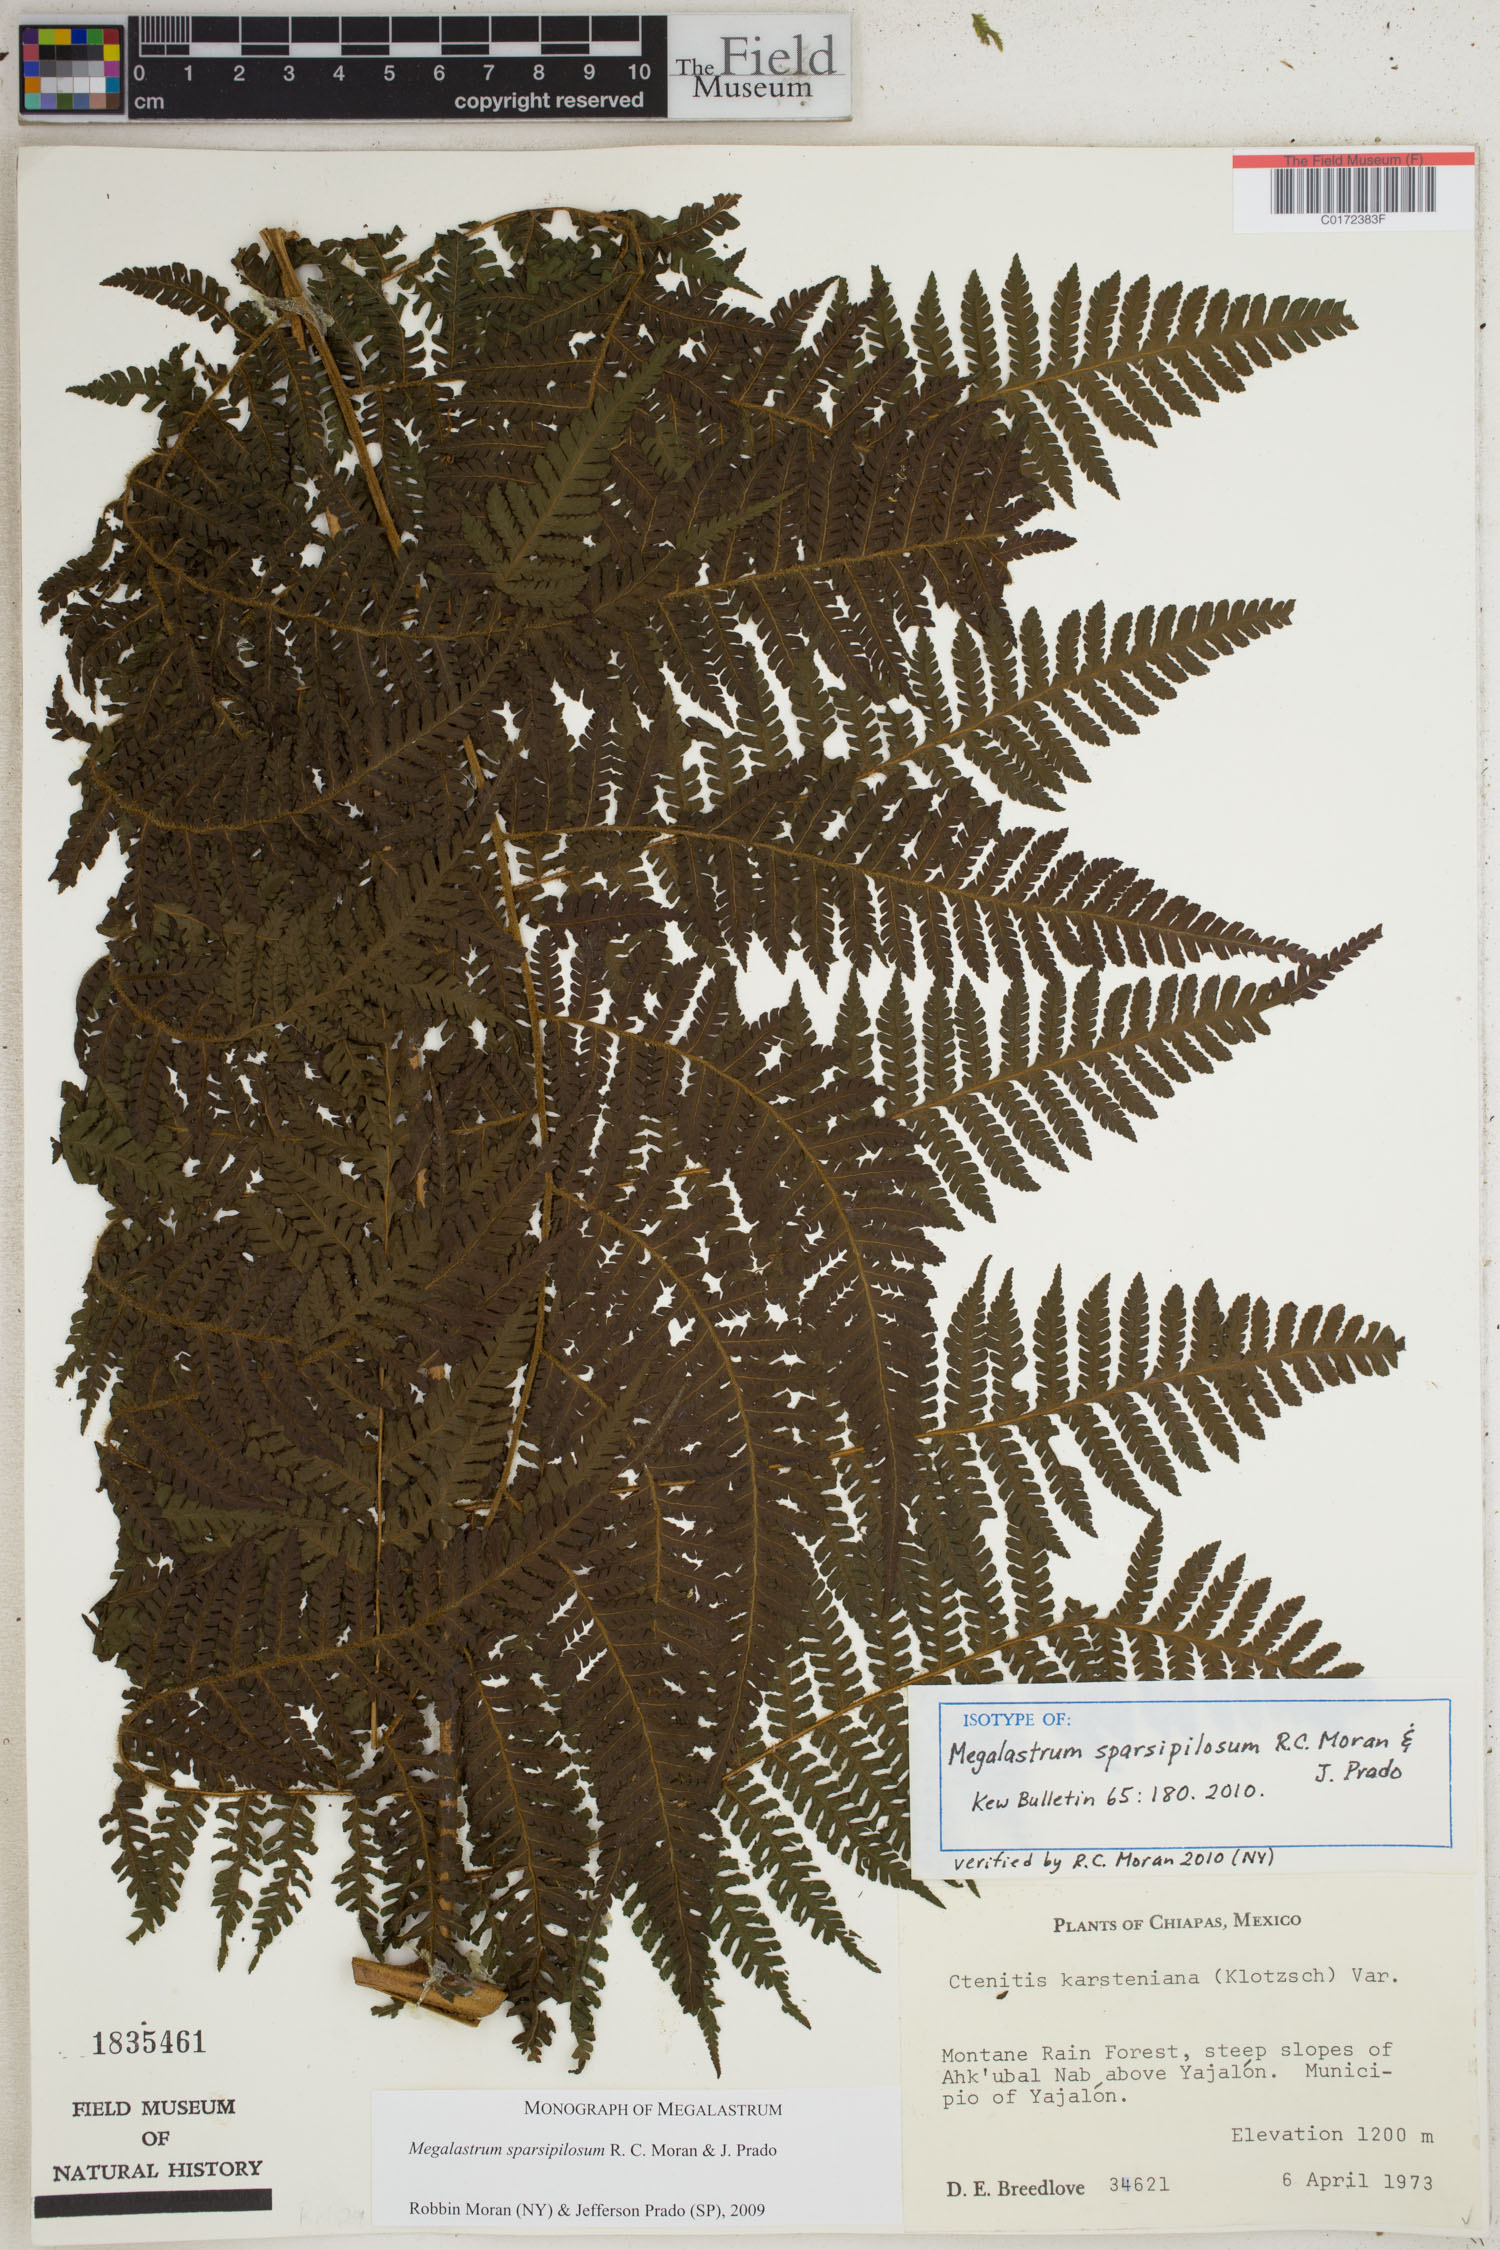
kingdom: Plantae
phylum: Tracheophyta
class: Polypodiopsida
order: Polypodiales
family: Dryopteridaceae
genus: Megalastrum
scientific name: Megalastrum sparsipilosum
